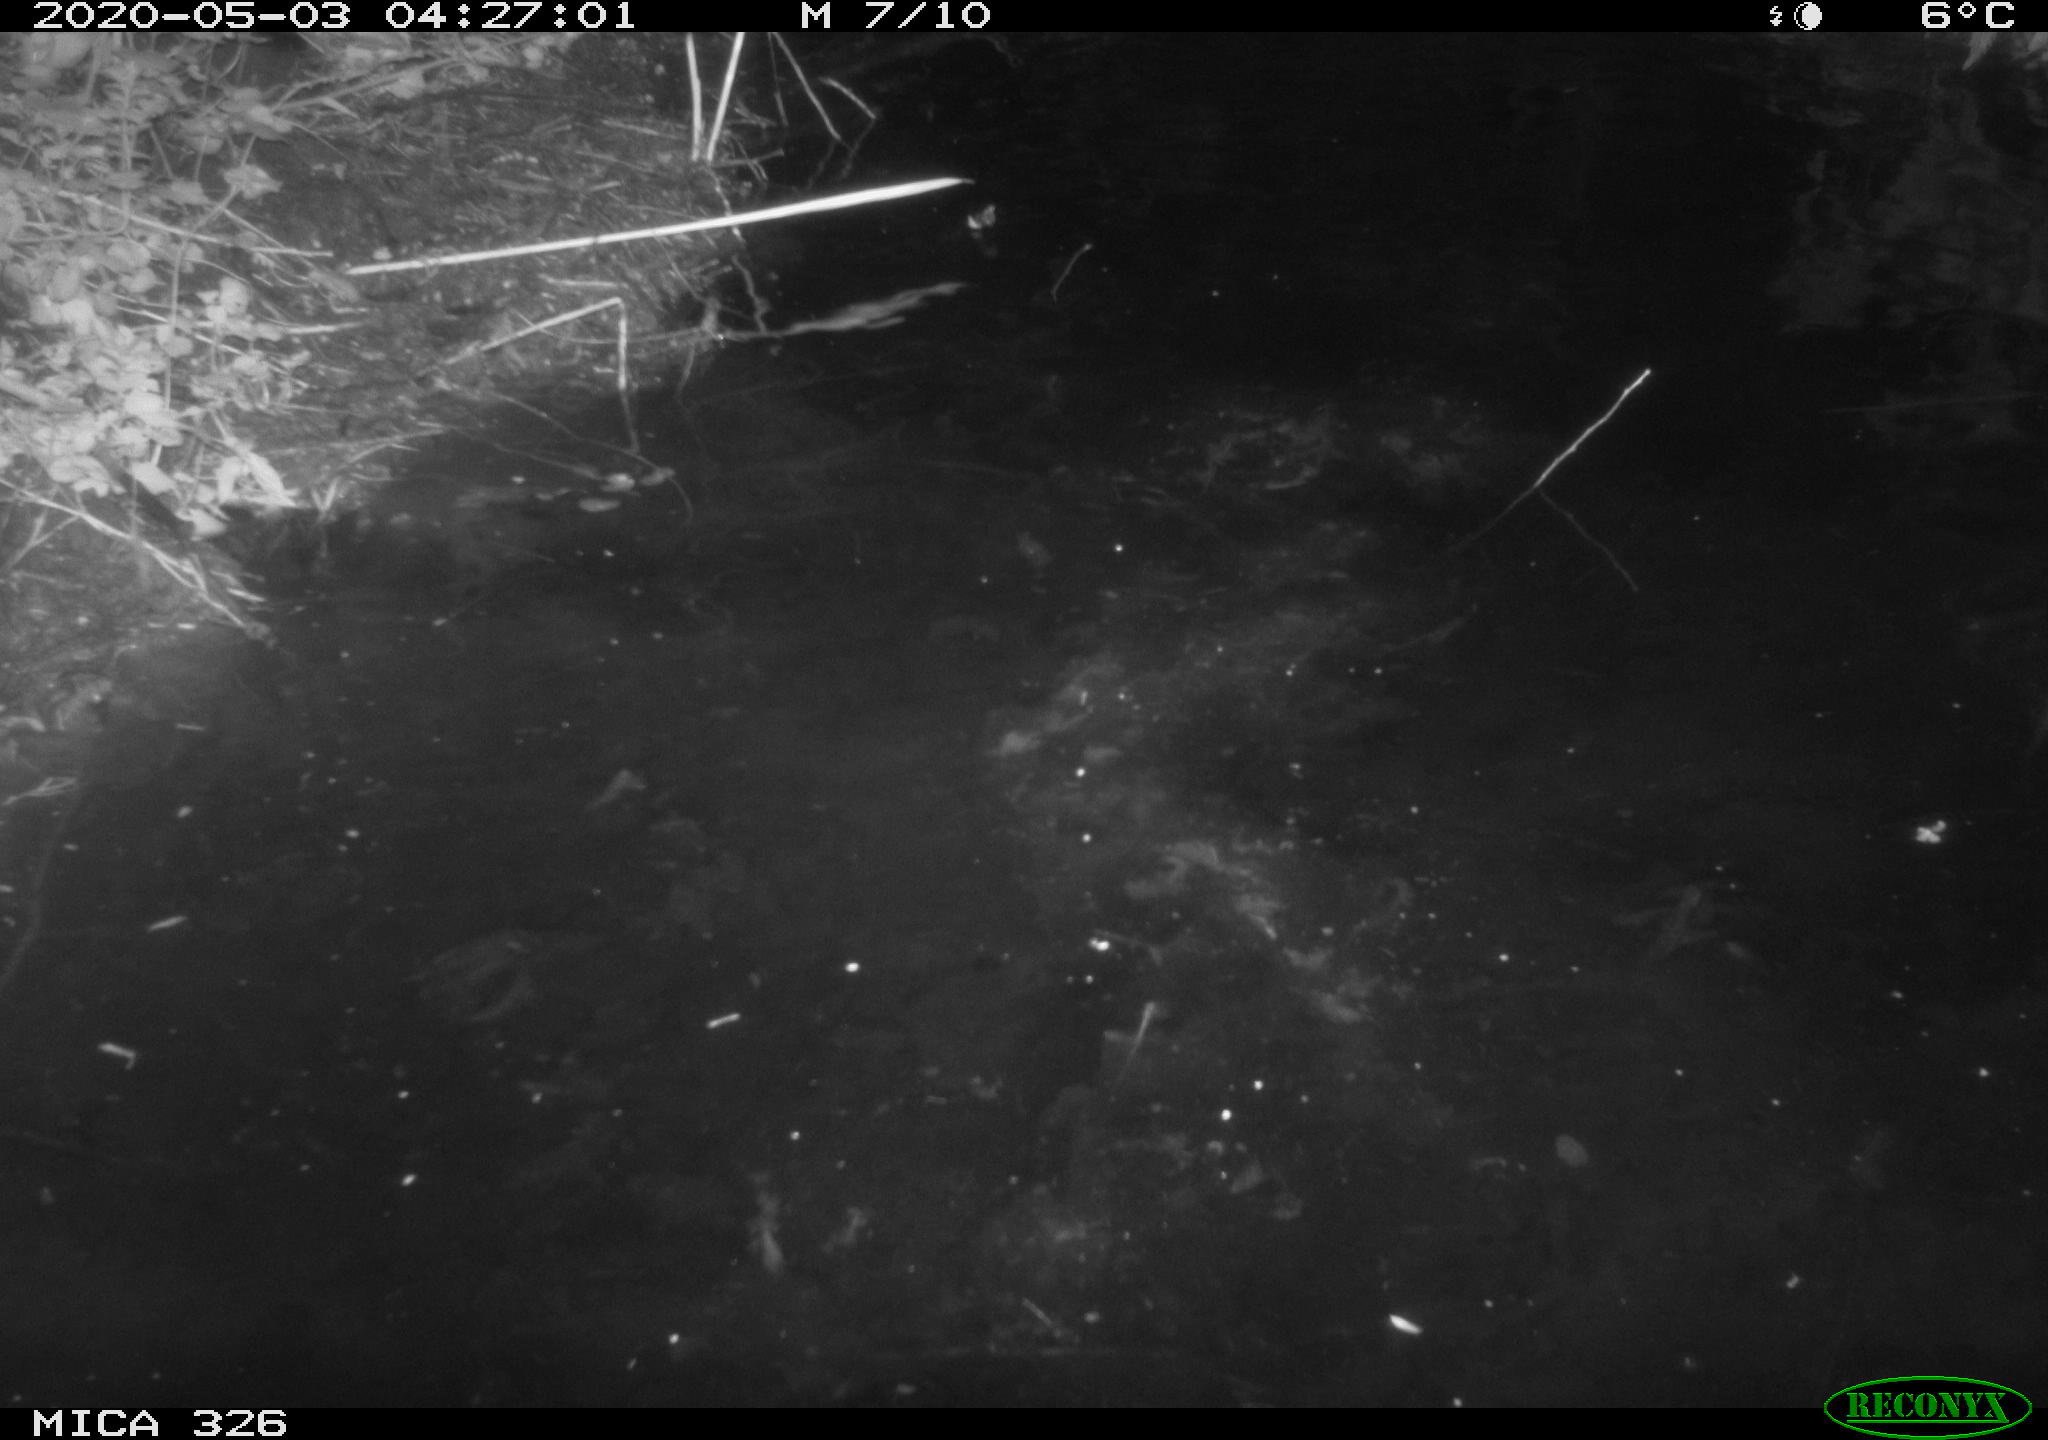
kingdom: Animalia
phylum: Chordata
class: Mammalia
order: Rodentia
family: Cricetidae
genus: Ondatra
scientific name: Ondatra zibethicus
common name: Muskrat
